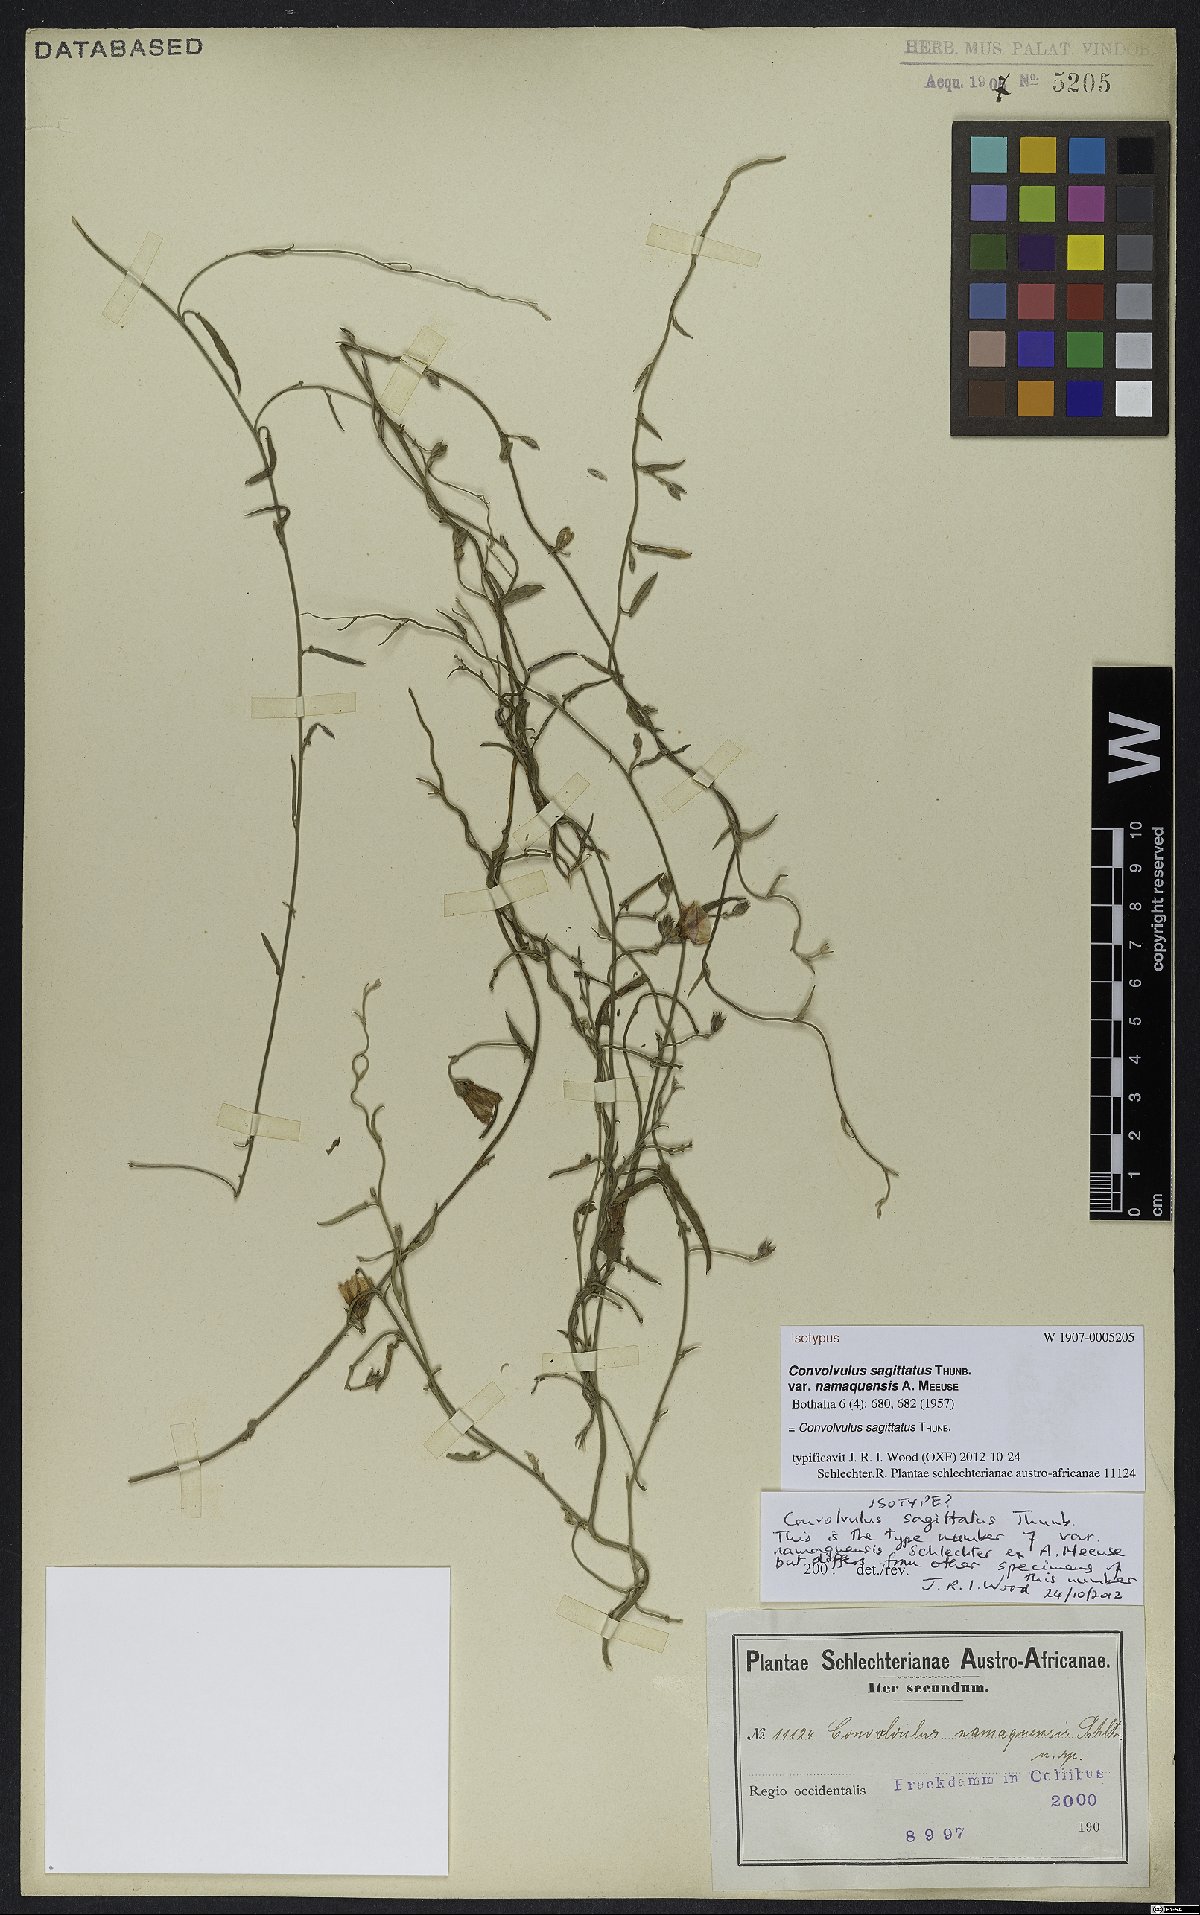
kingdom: Plantae
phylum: Tracheophyta
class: Magnoliopsida
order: Solanales
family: Convolvulaceae
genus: Convolvulus
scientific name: Convolvulus sagittatus
